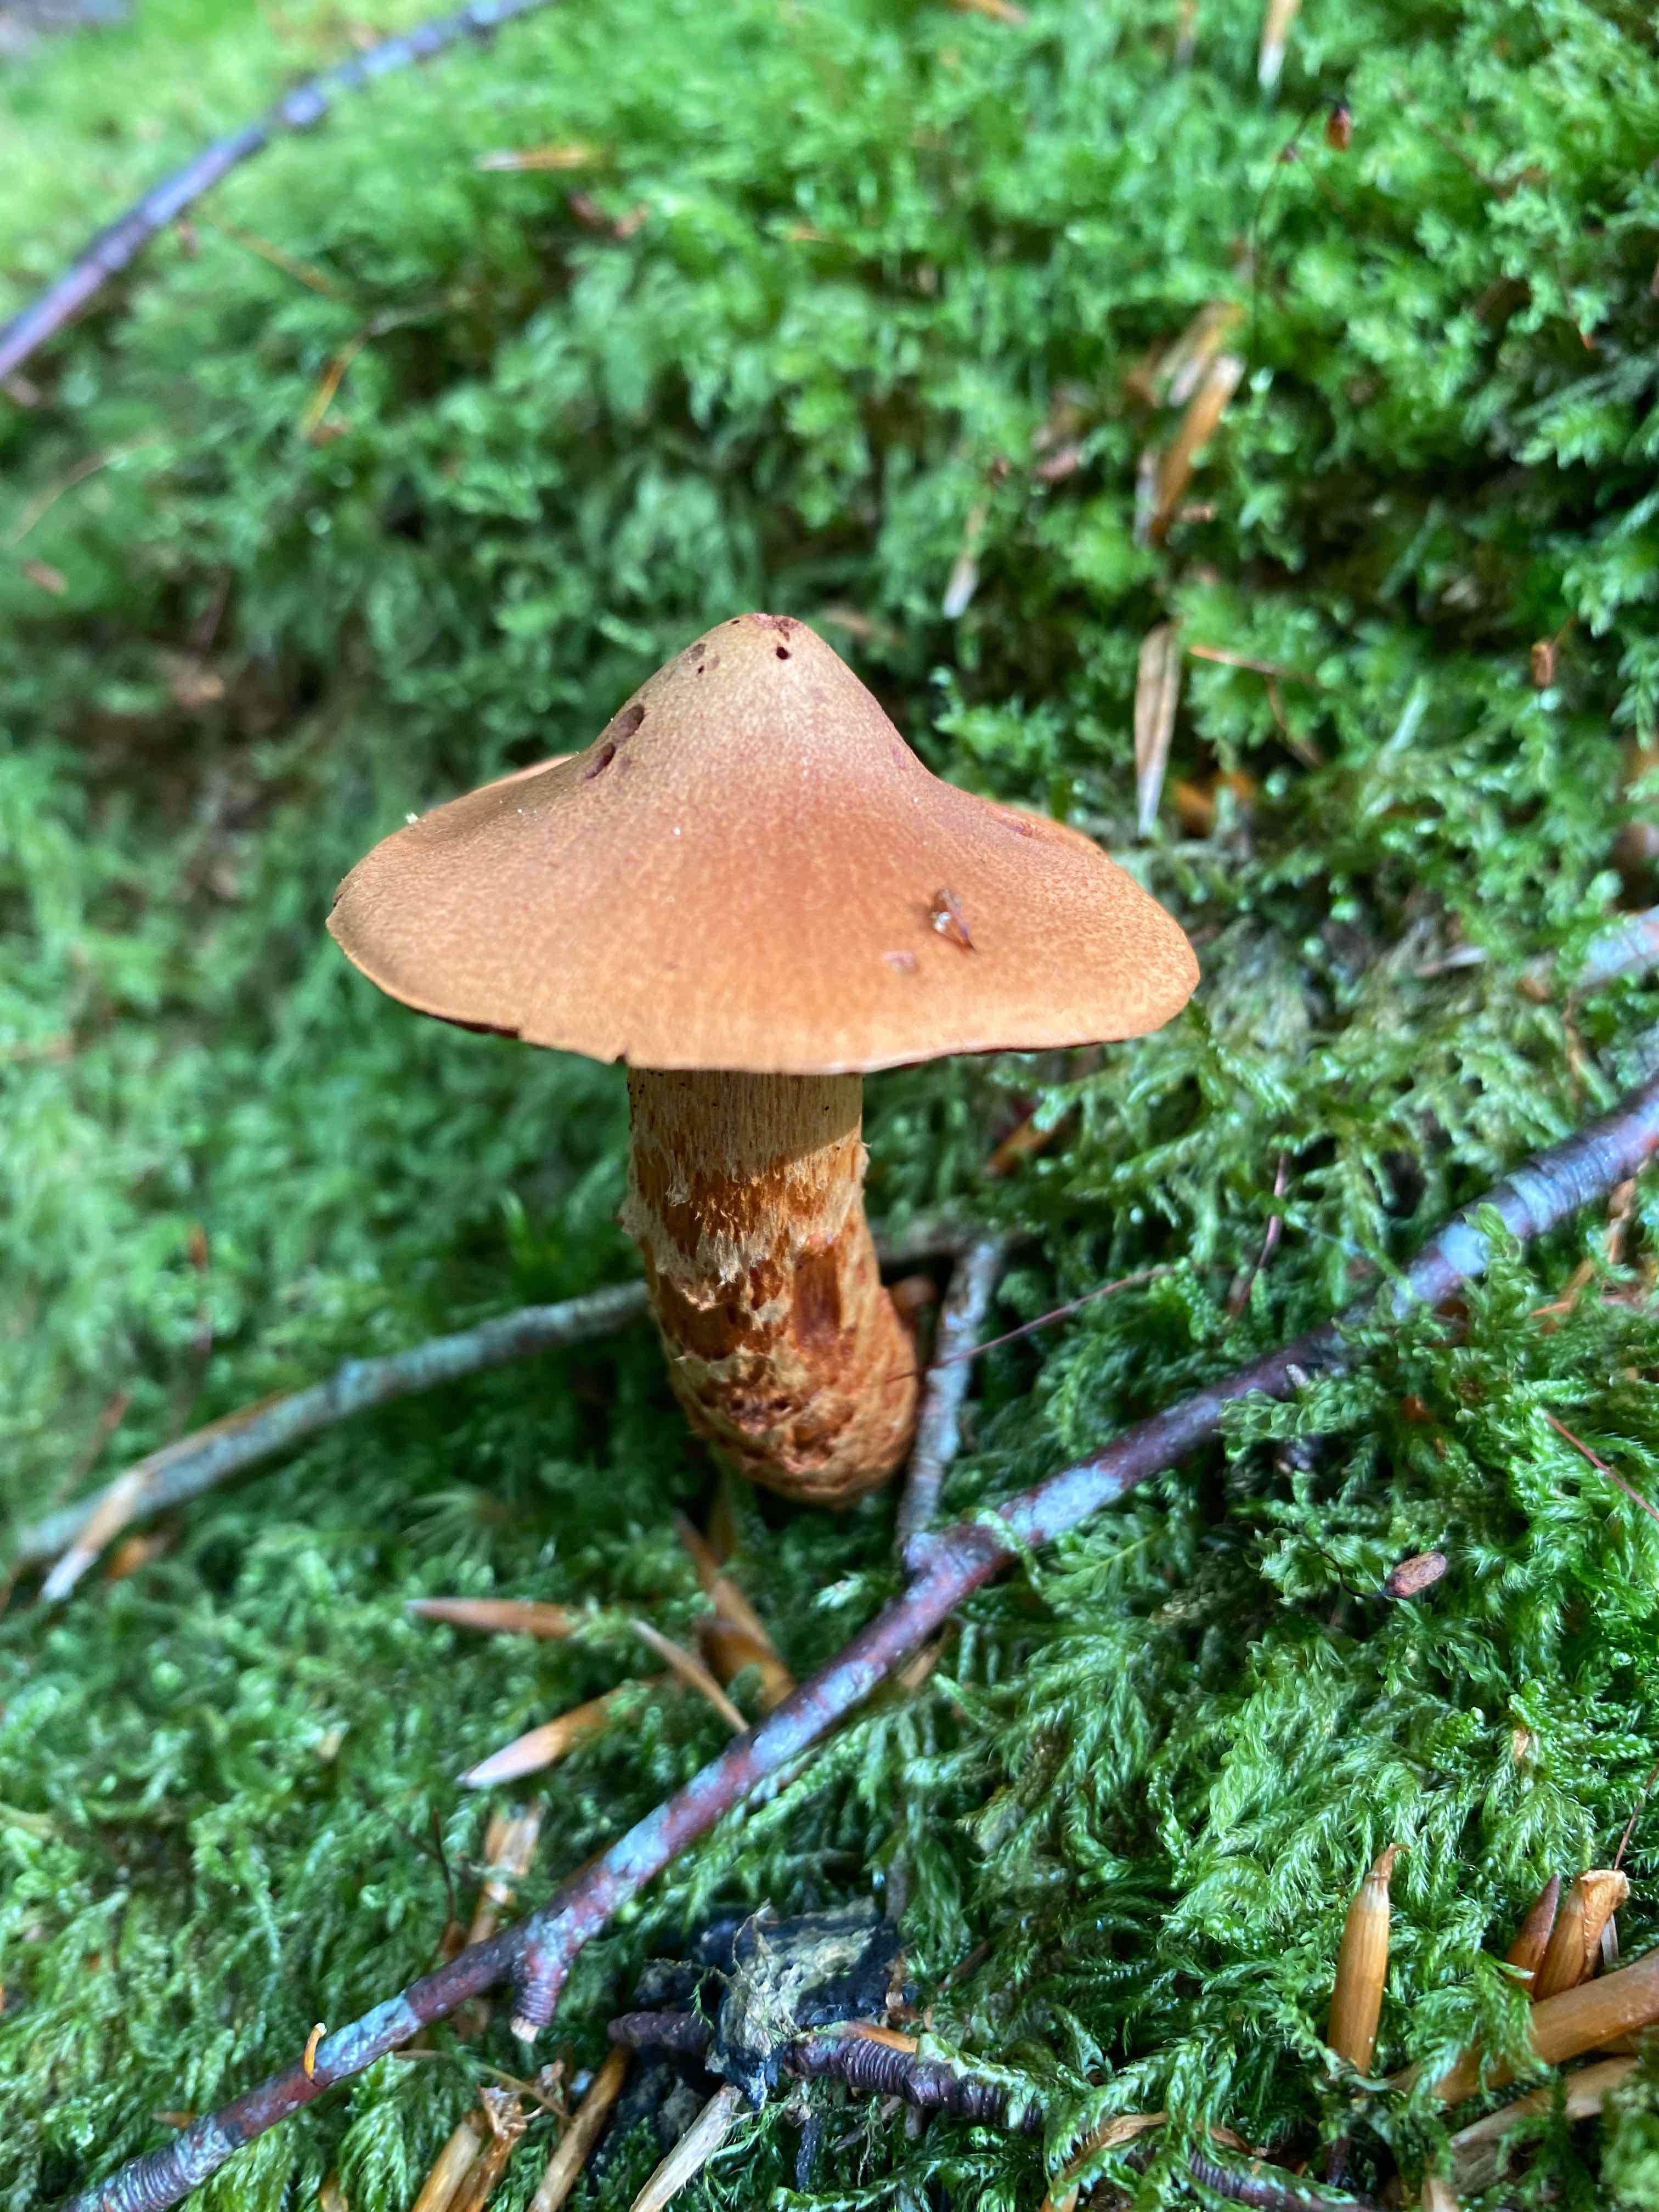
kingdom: Fungi
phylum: Basidiomycota
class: Agaricomycetes
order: Agaricales
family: Cortinariaceae
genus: Cortinarius
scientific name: Cortinarius rubellus
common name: puklet gift-slørhat
